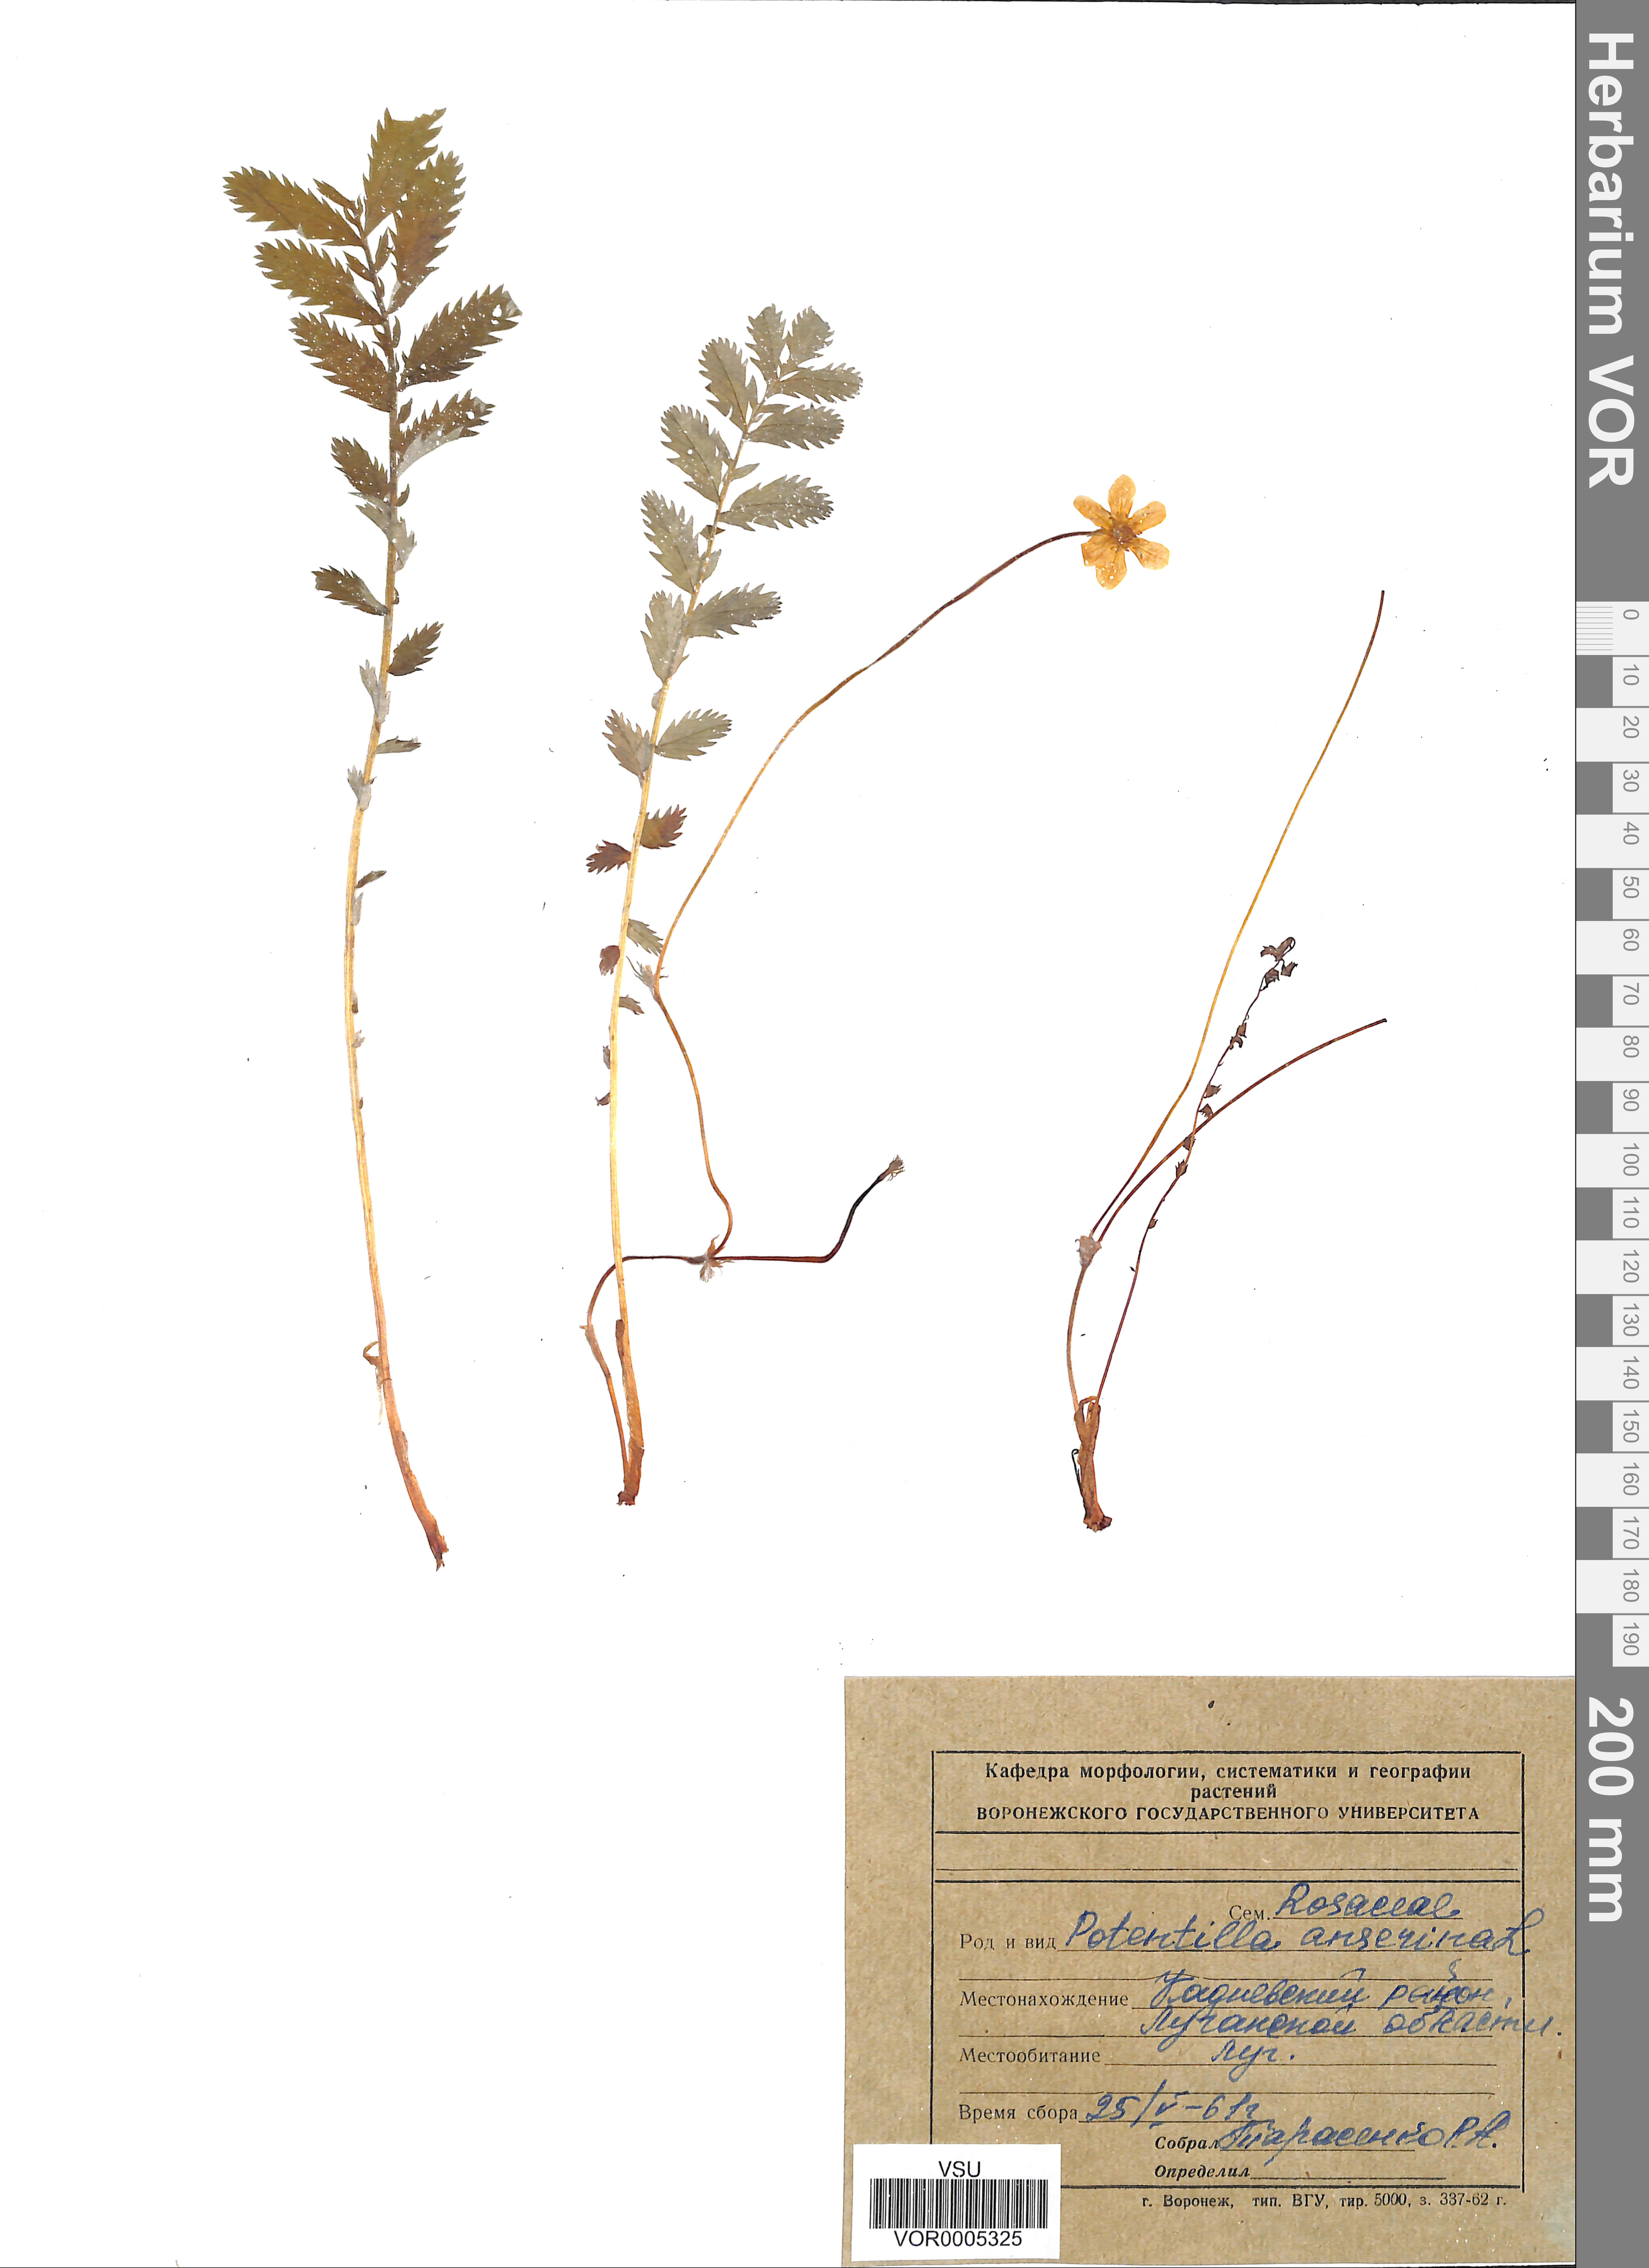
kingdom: Plantae
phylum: Tracheophyta
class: Magnoliopsida
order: Rosales
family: Rosaceae
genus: Argentina
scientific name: Argentina anserina
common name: Common silverweed
